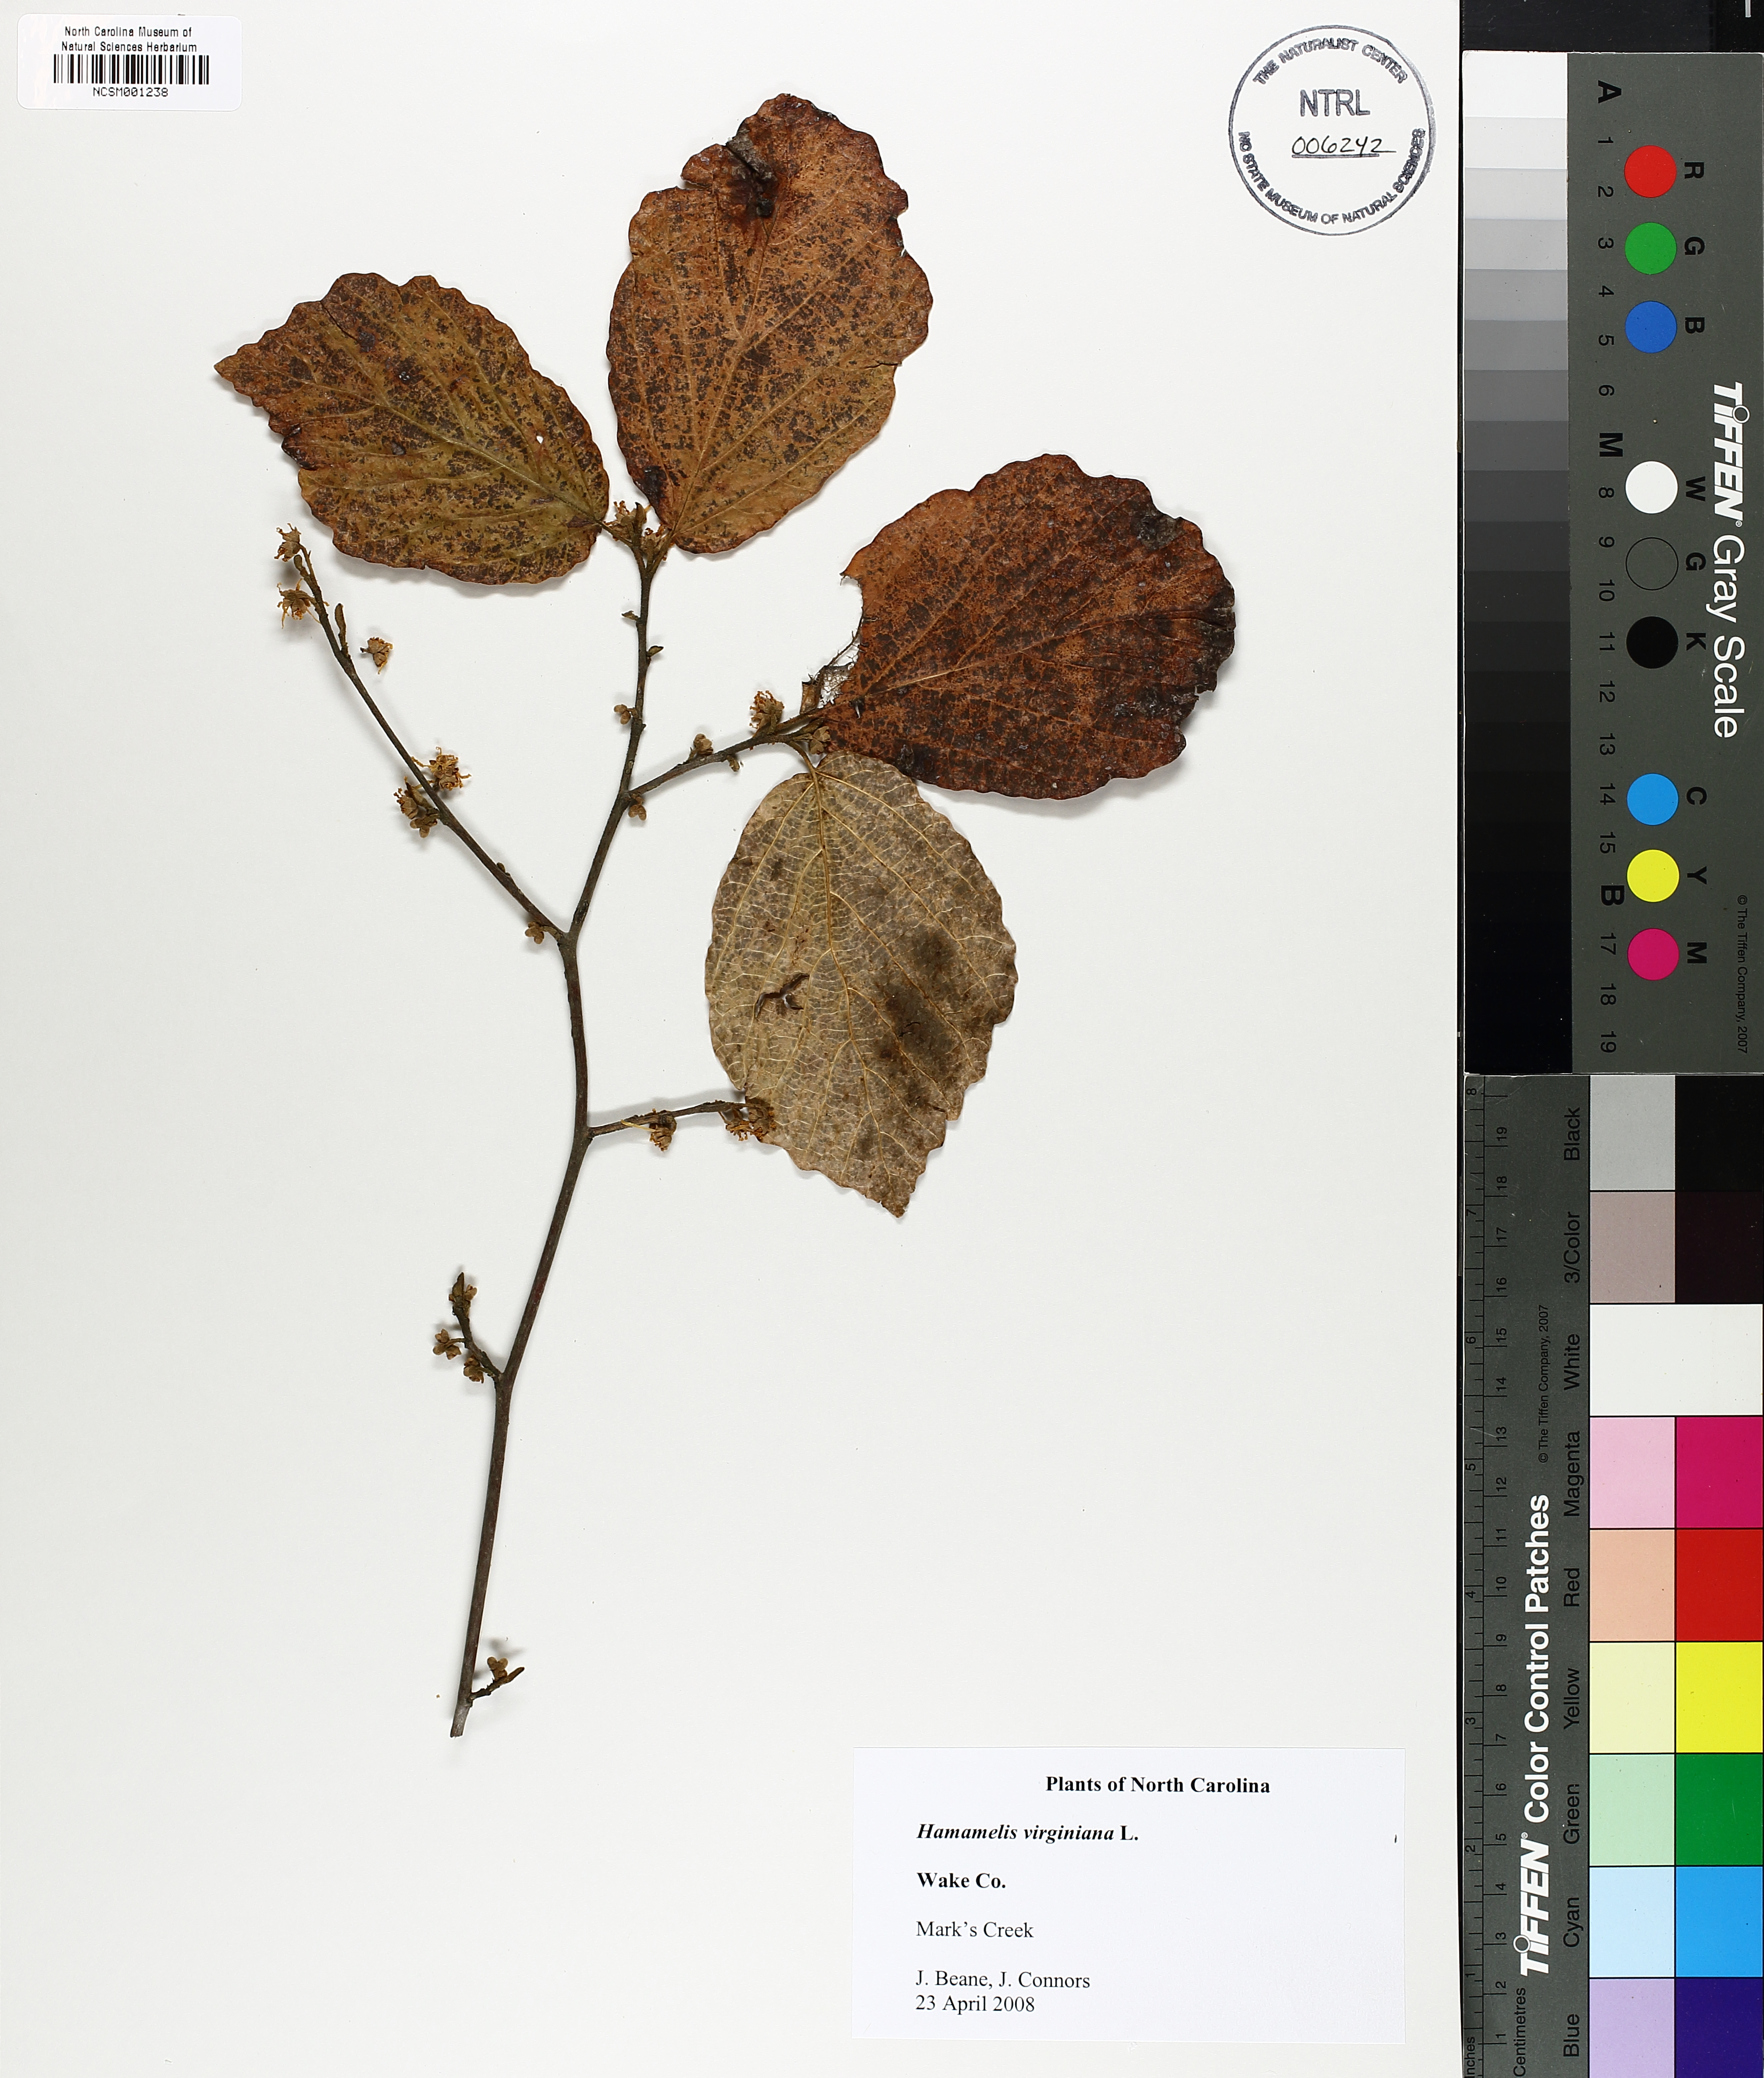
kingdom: Plantae
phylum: Tracheophyta
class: Magnoliopsida
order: Saxifragales
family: Hamamelidaceae
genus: Hamamelis
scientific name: Hamamelis virginiana
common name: Witch-hazel
